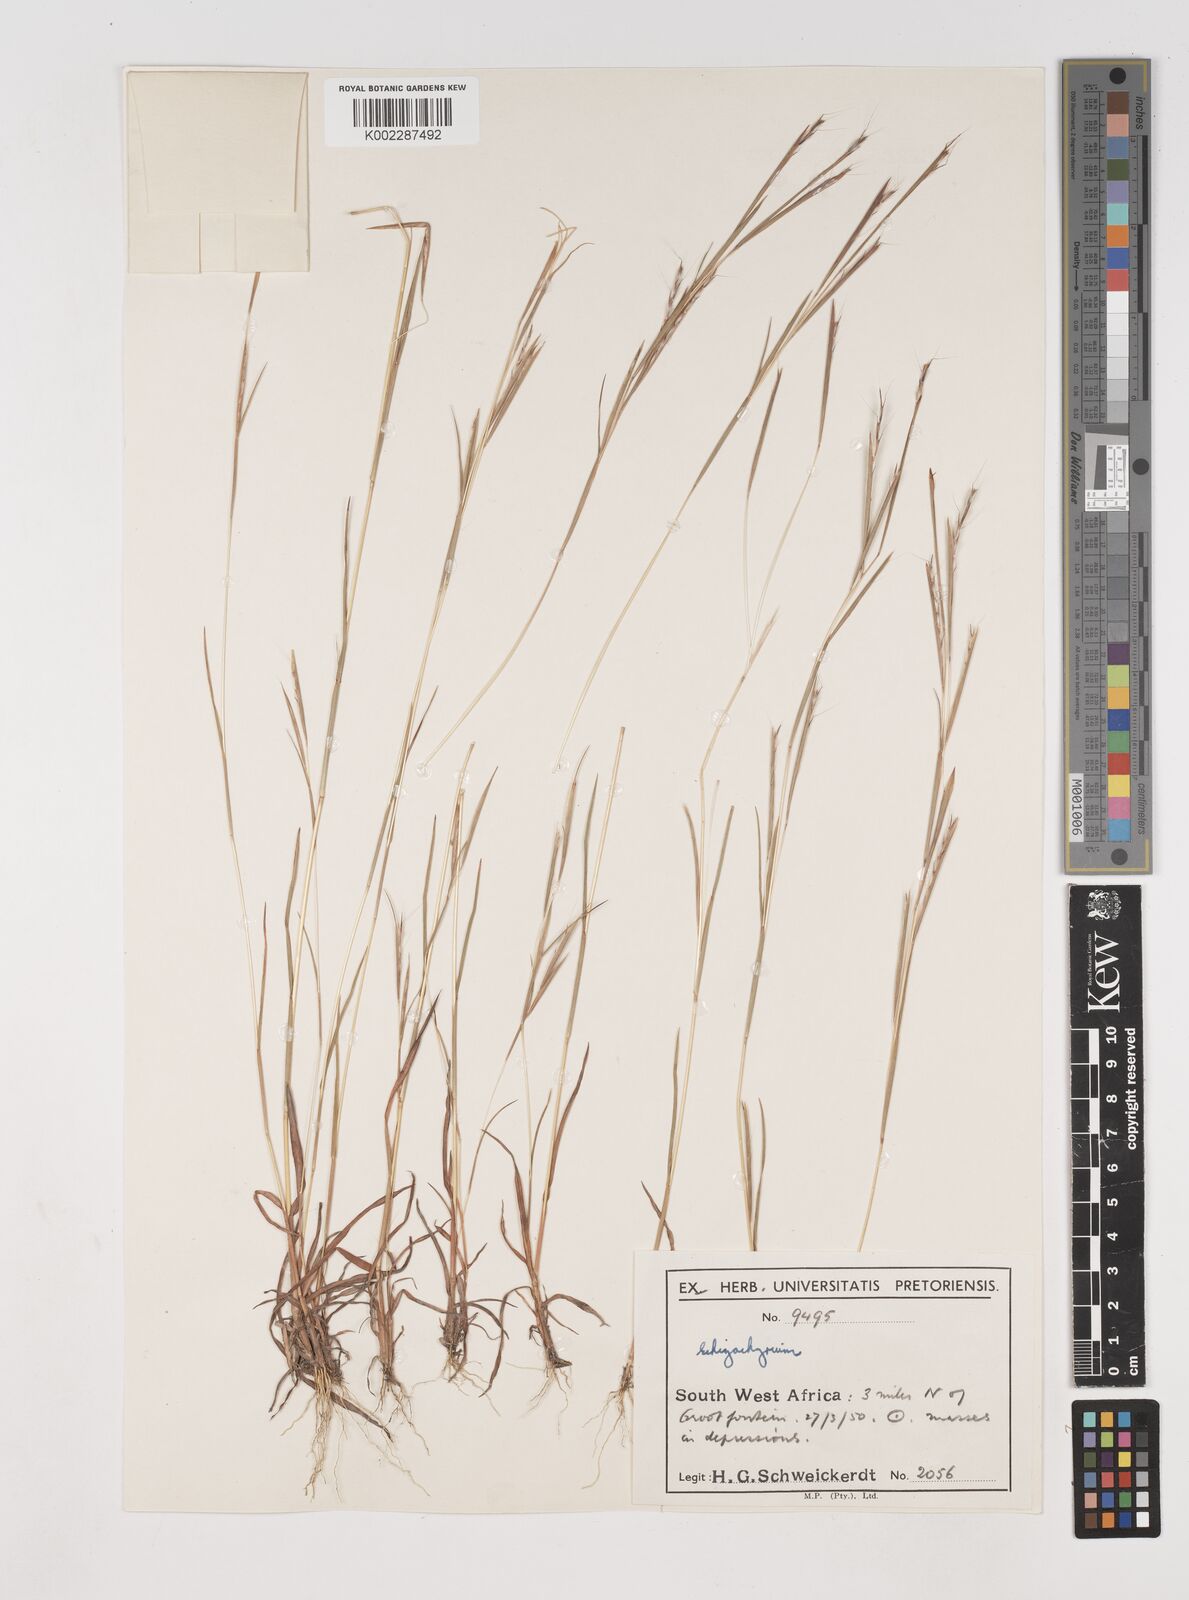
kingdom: Plantae
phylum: Tracheophyta
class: Liliopsida
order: Poales
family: Poaceae
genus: Schizachyrium
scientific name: Schizachyrium exile
